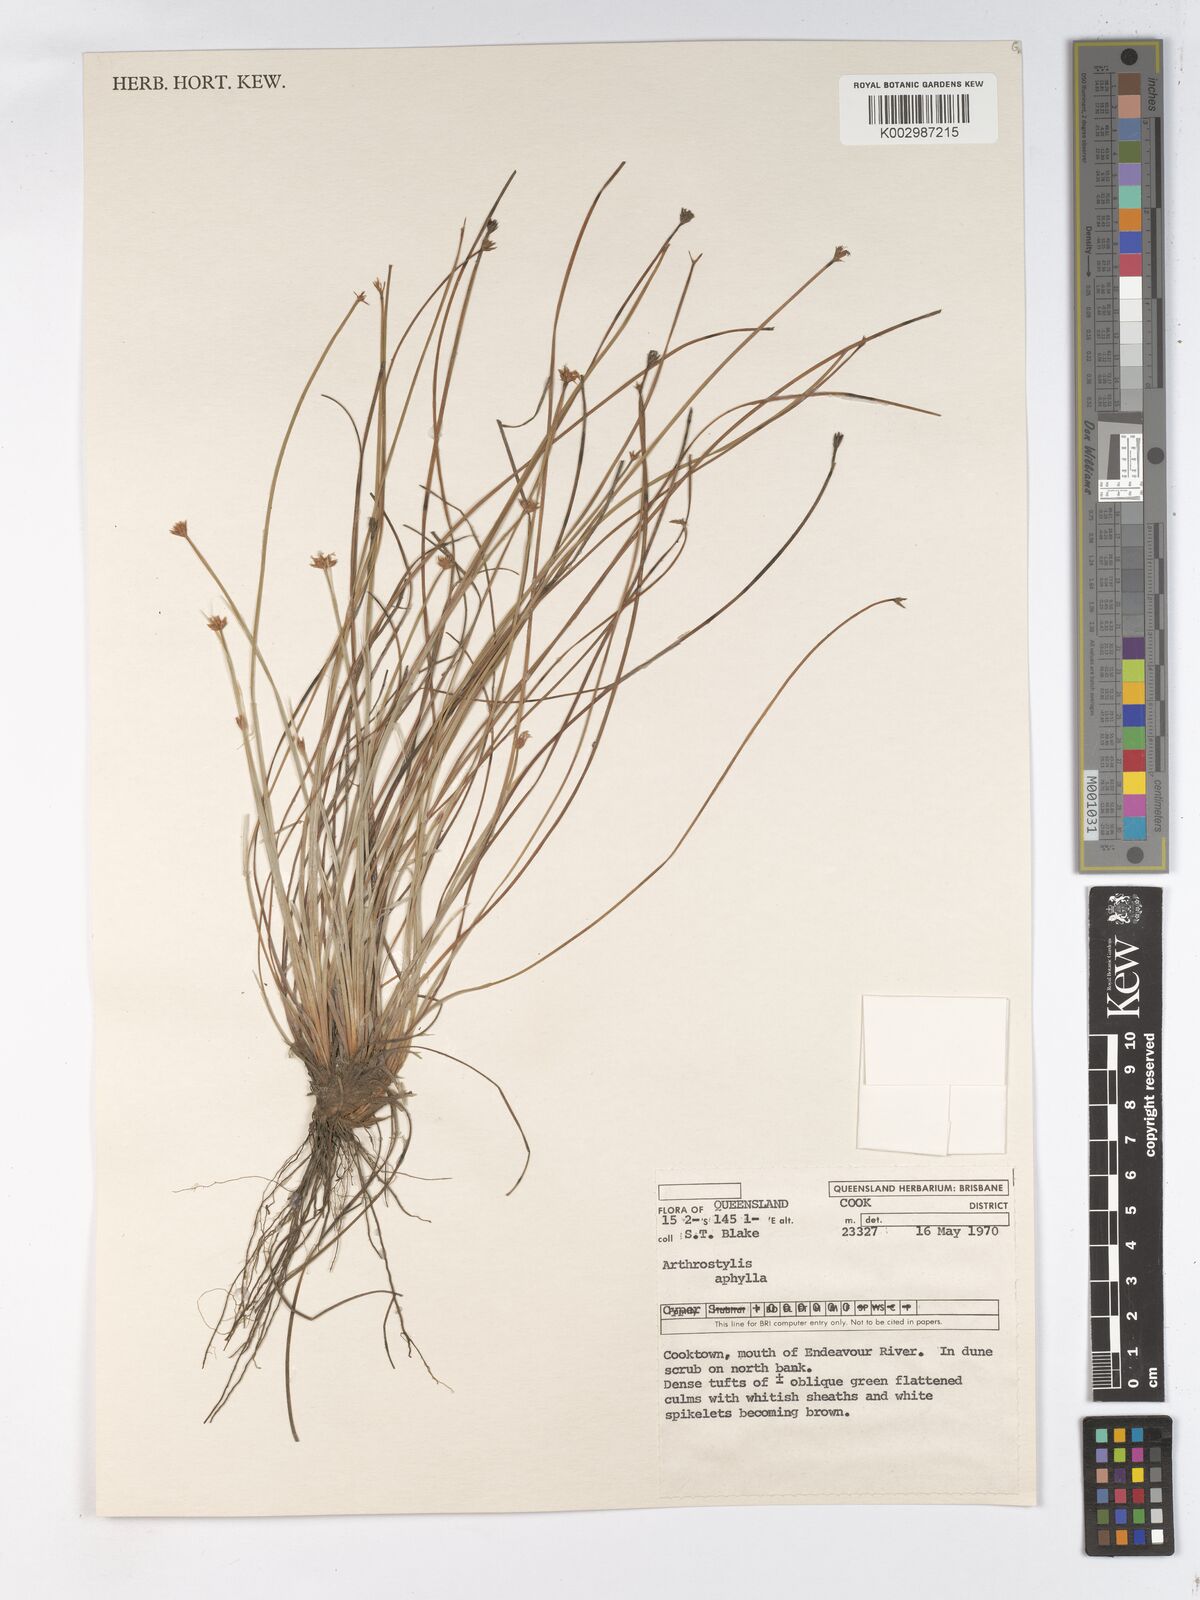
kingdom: Plantae
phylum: Tracheophyta
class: Liliopsida
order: Poales
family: Cyperaceae
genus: Arthrostylis
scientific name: Arthrostylis aphylla
